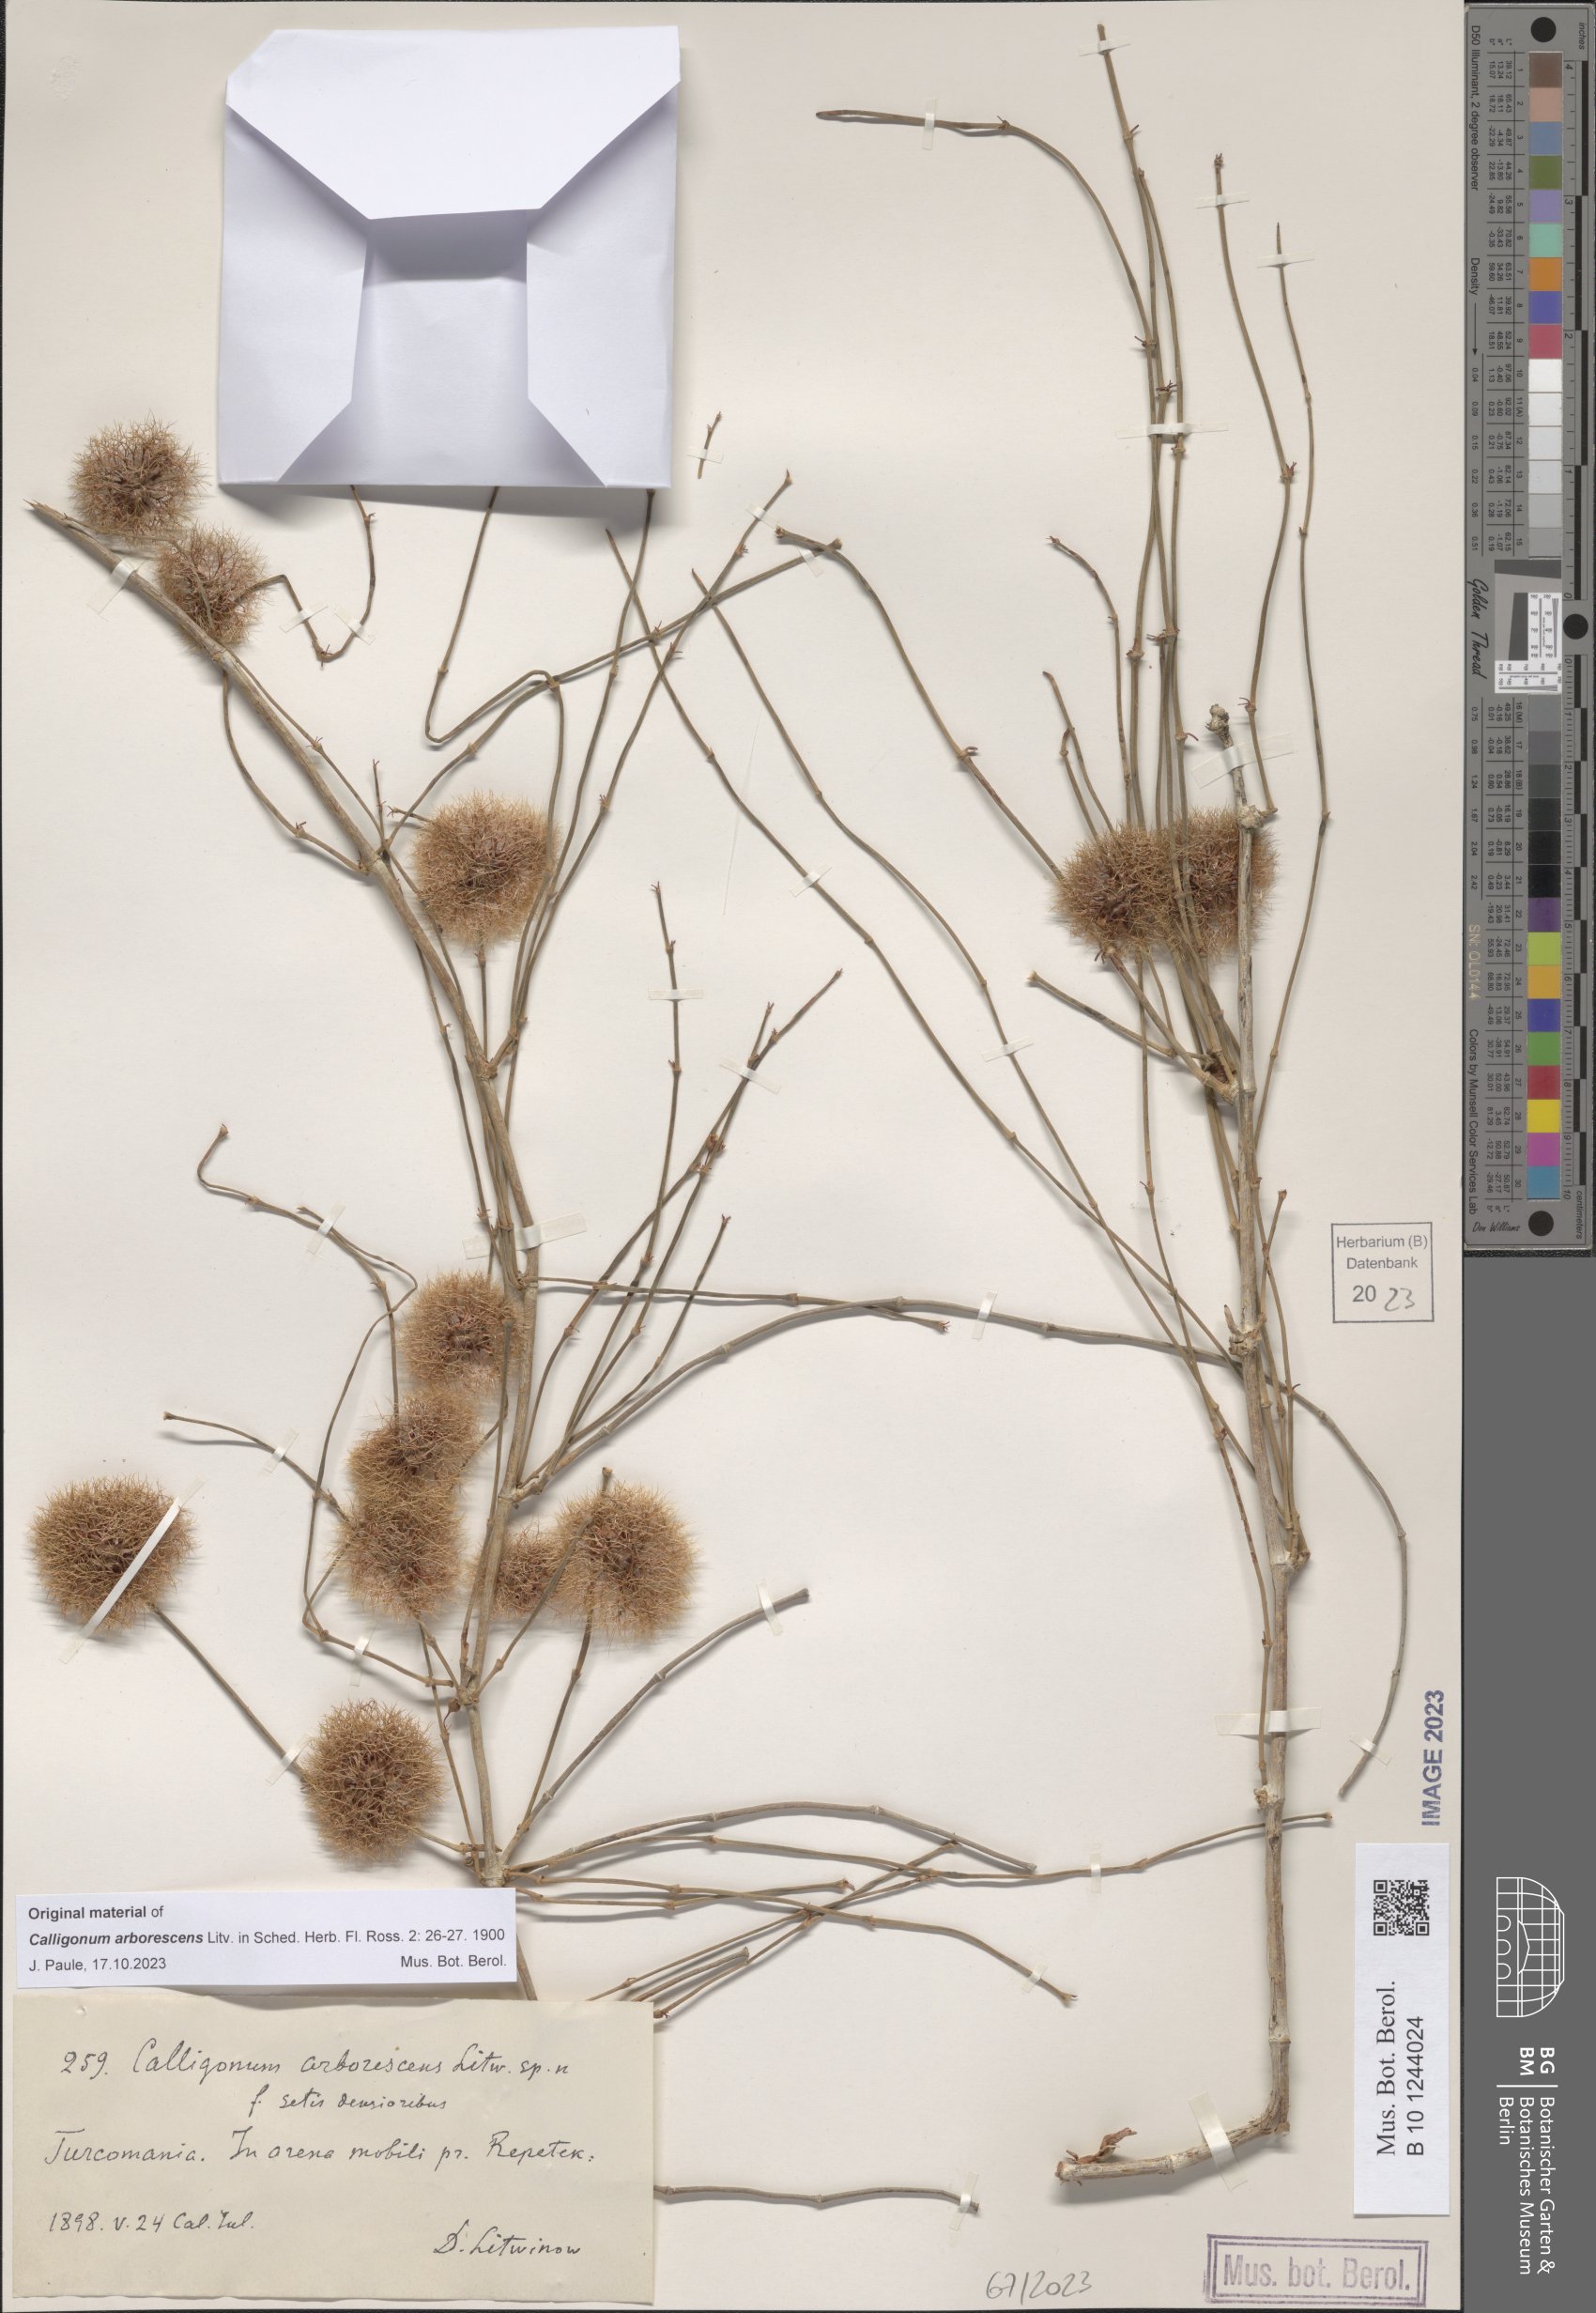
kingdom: Plantae
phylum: Tracheophyta
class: Magnoliopsida
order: Caryophyllales
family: Polygonaceae
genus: Calligonum
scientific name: Calligonum arborescens
